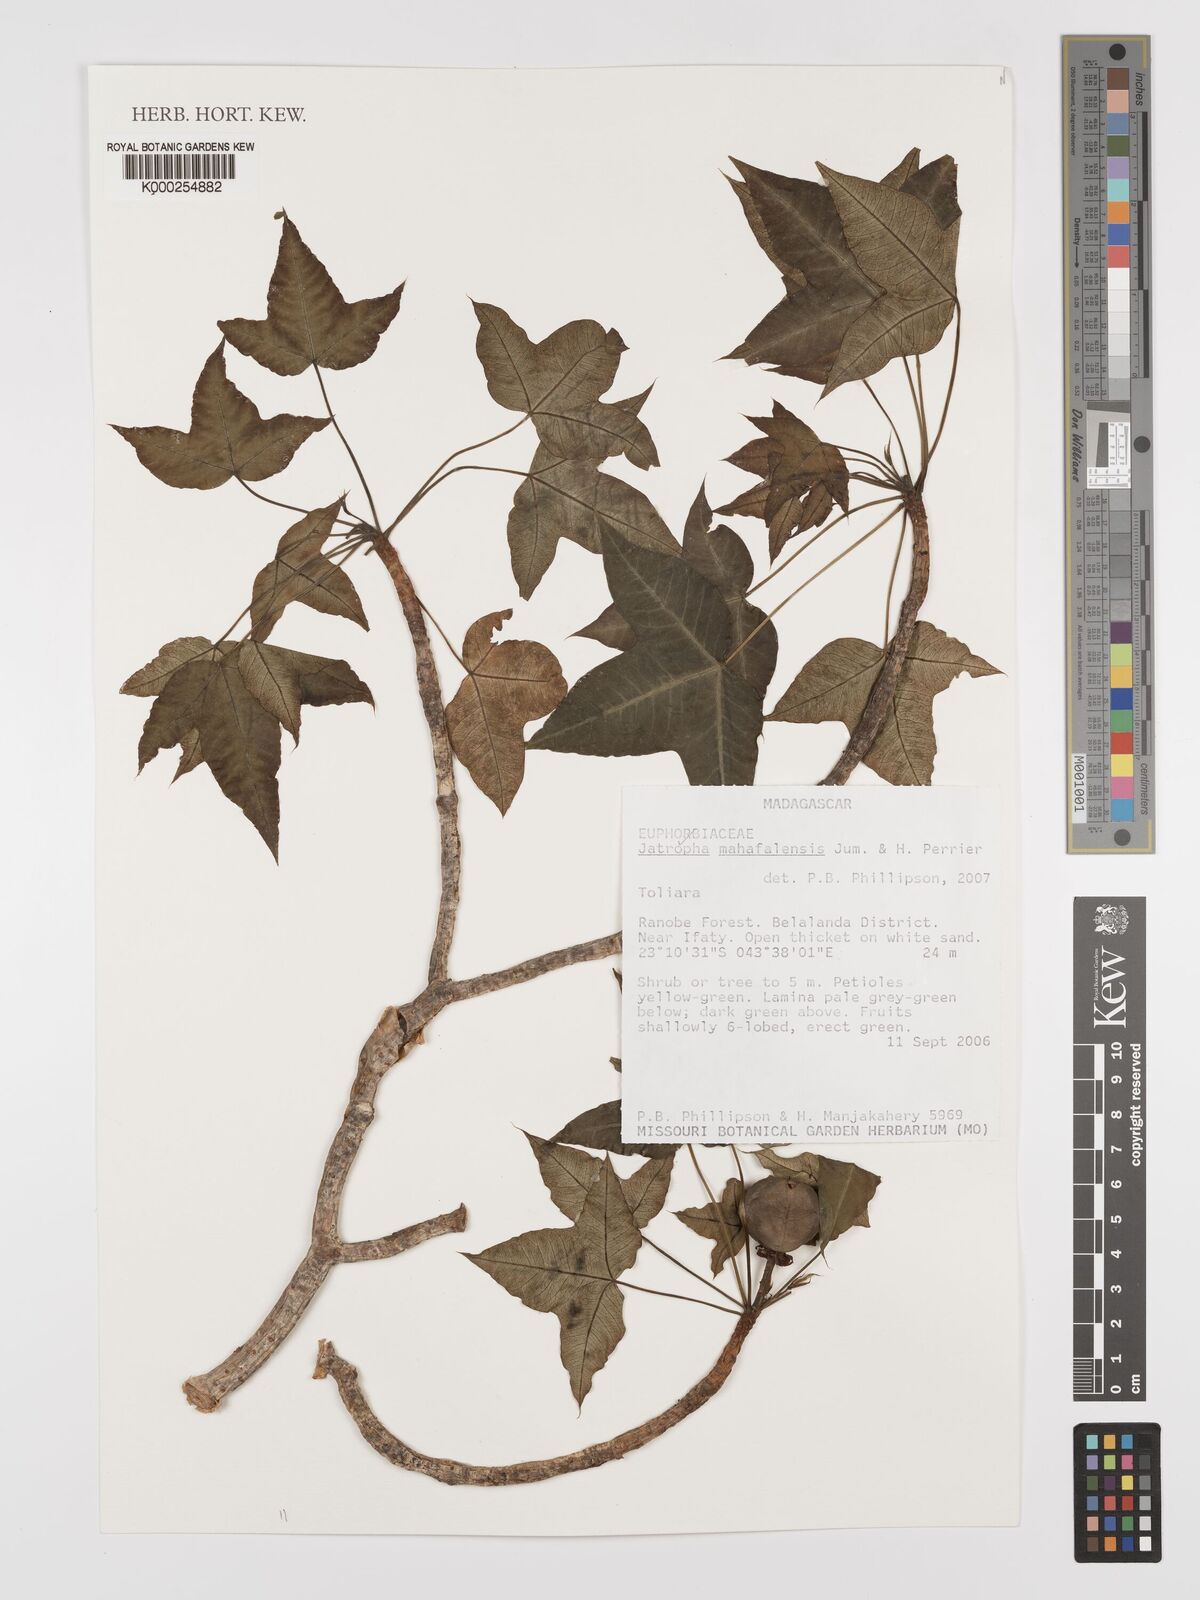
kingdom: Plantae
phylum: Tracheophyta
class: Magnoliopsida
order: Malpighiales
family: Euphorbiaceae
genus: Jatropha
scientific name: Jatropha mahafalensis
